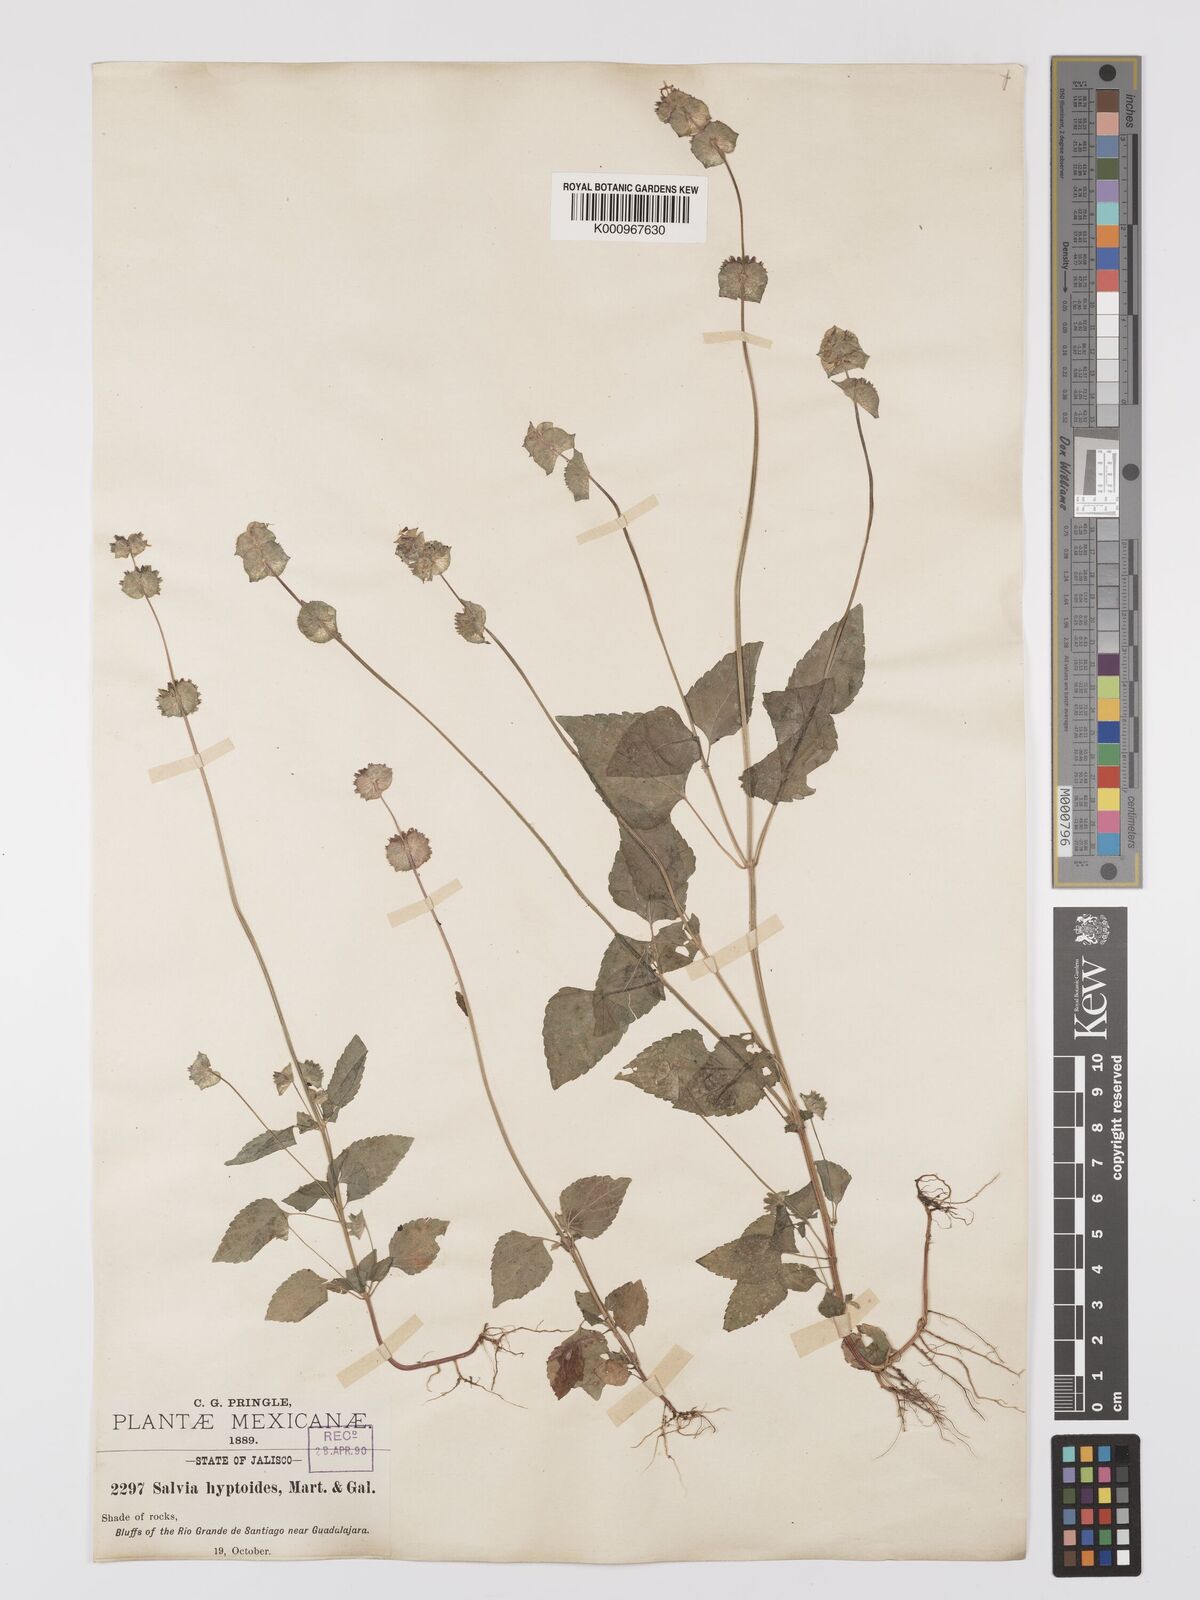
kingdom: Plantae
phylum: Tracheophyta
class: Magnoliopsida
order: Lamiales
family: Lamiaceae
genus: Salvia
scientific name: Salvia lasiocephala
